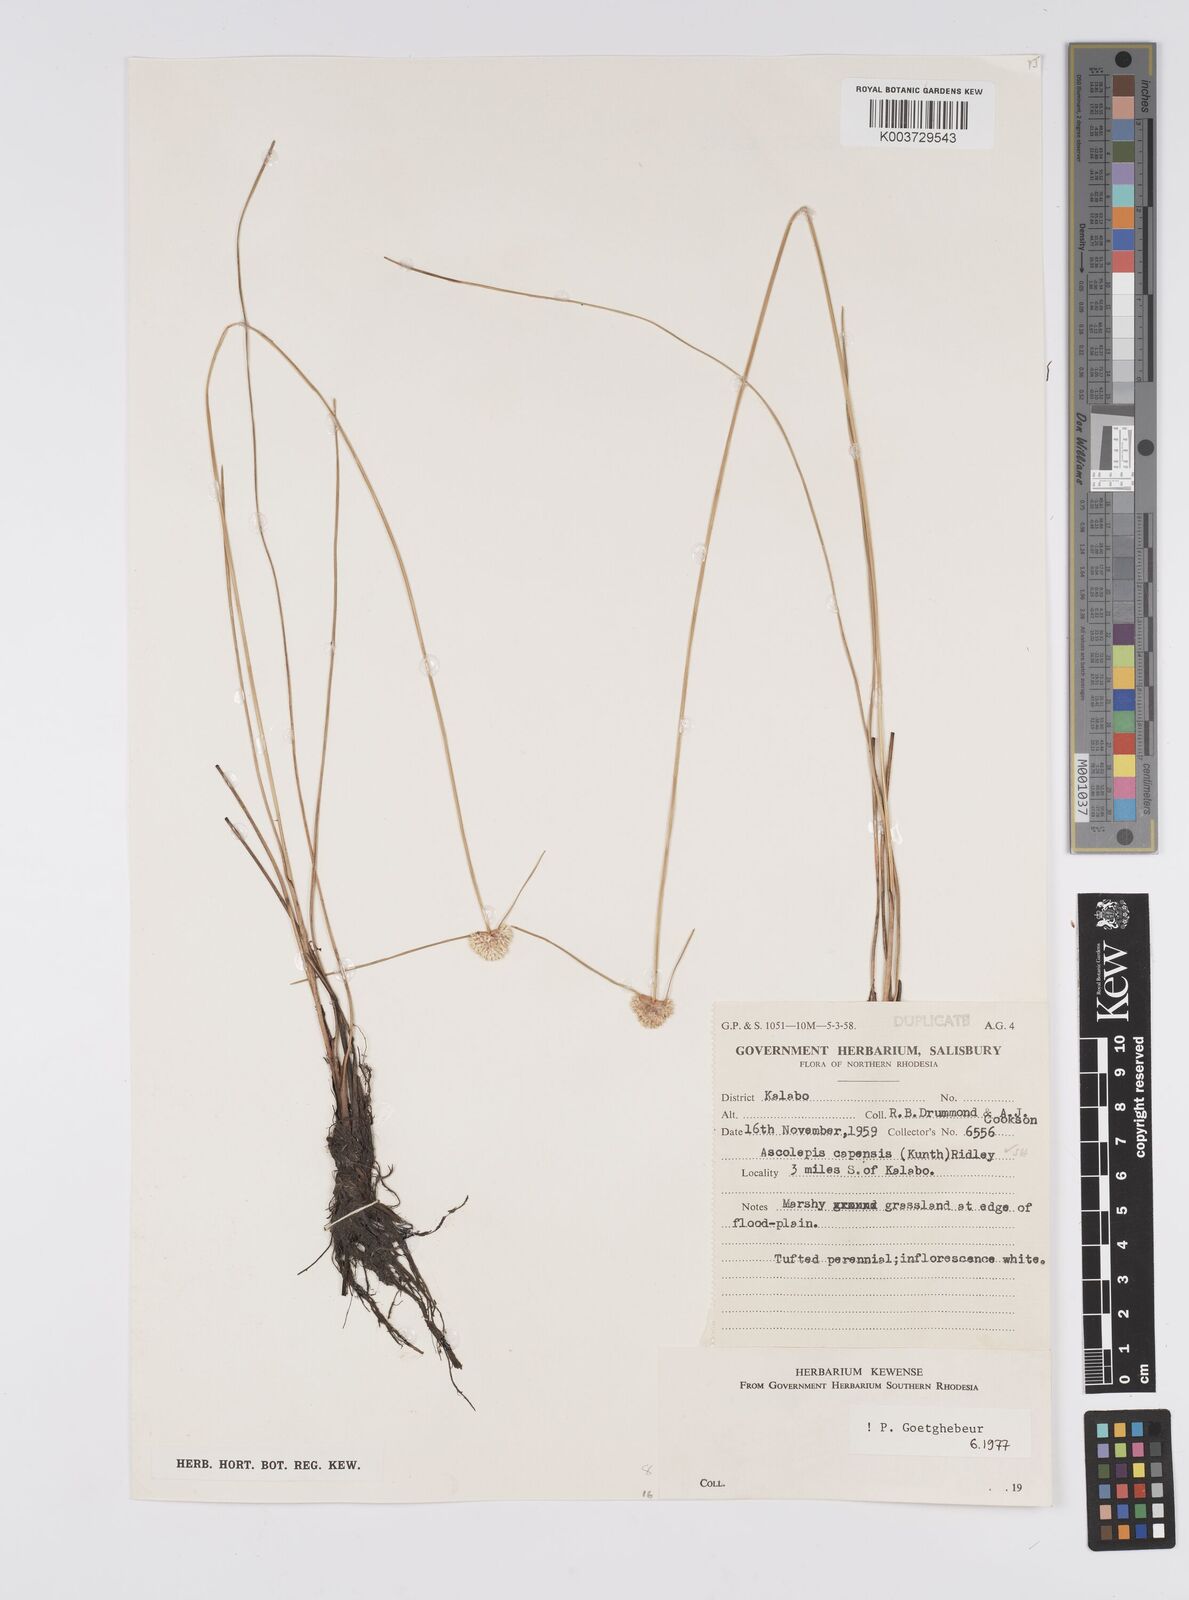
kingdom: Plantae
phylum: Tracheophyta
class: Liliopsida
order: Poales
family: Cyperaceae
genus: Cyperus
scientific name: Cyperus ascocapensis
